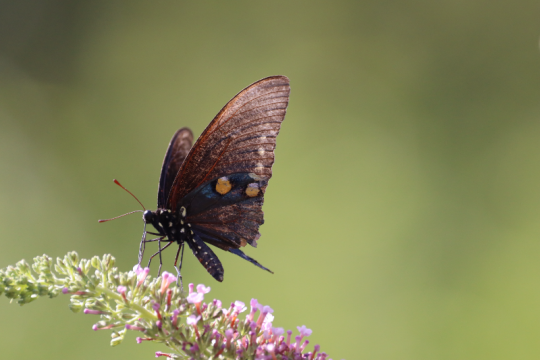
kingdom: Animalia
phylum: Arthropoda
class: Insecta
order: Lepidoptera
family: Papilionidae
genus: Battus
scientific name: Battus philenor
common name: Pipevine Swallowtail
